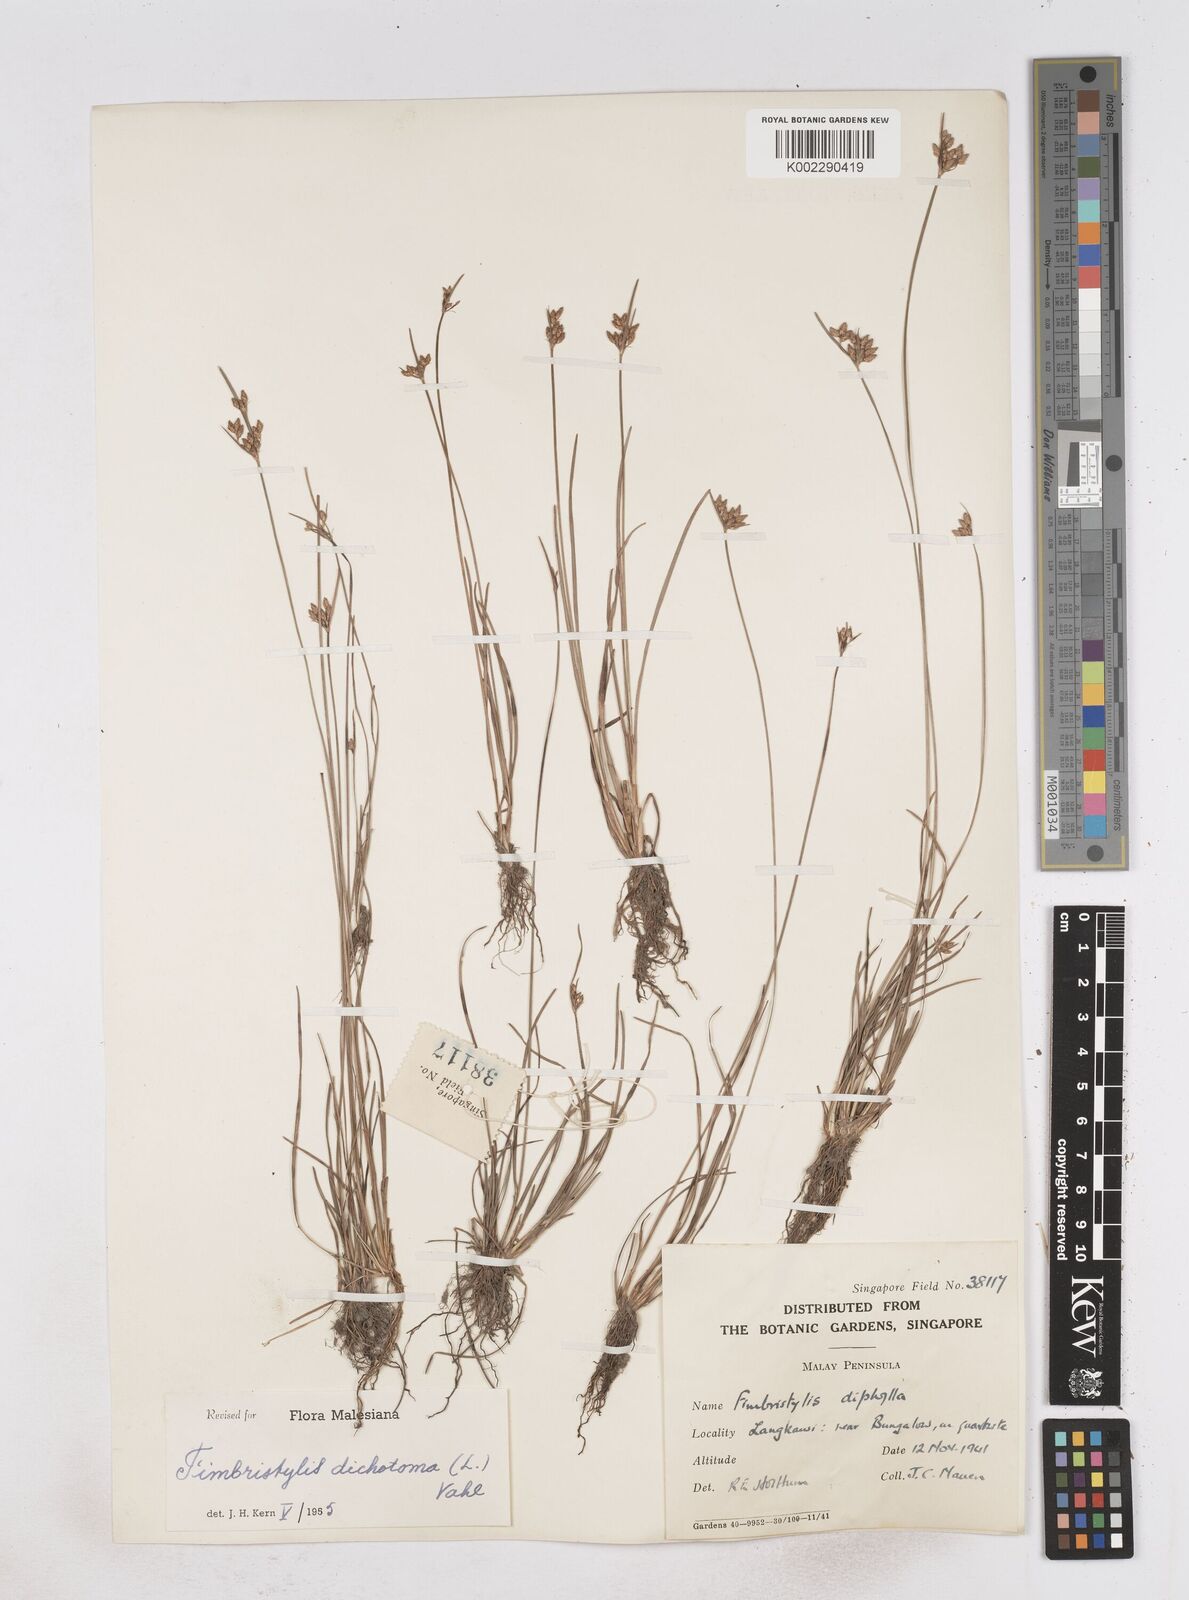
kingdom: Plantae
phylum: Tracheophyta
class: Liliopsida
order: Poales
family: Cyperaceae
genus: Fimbristylis
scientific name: Fimbristylis dichotoma
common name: Forked fimbry
